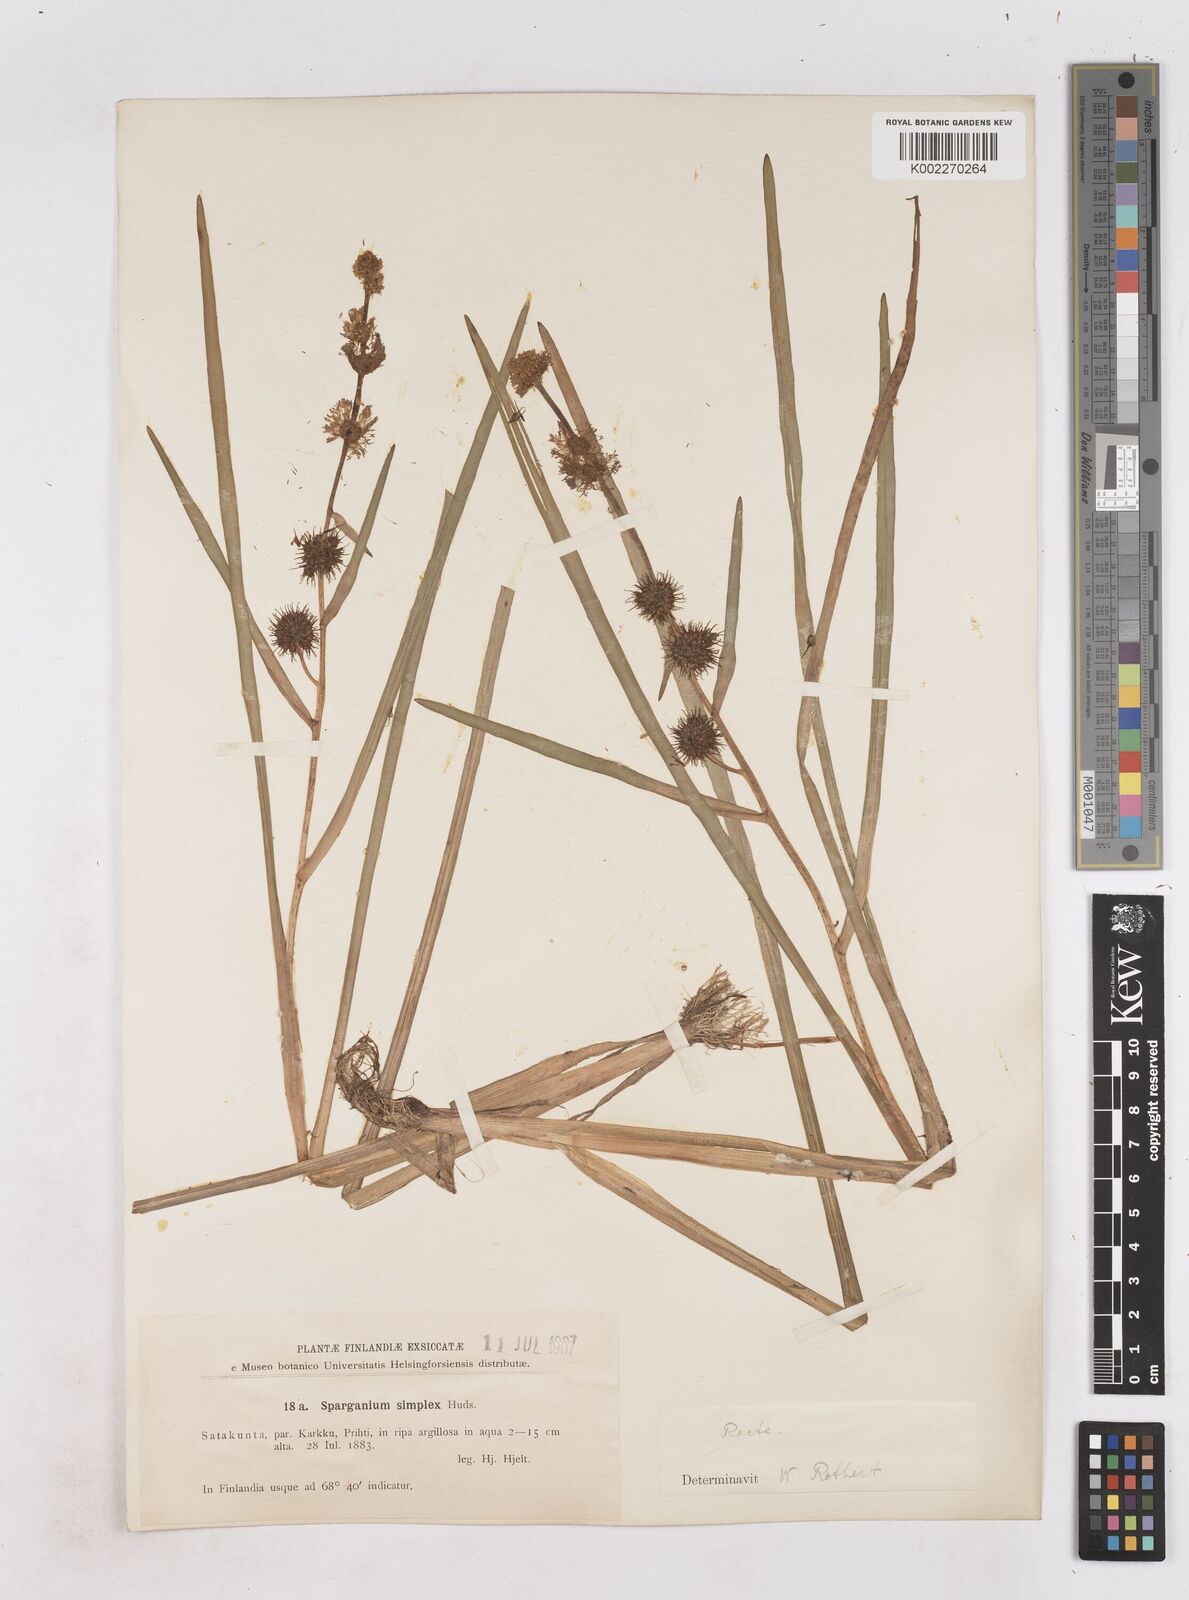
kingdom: Plantae
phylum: Tracheophyta
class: Liliopsida
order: Poales
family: Typhaceae
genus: Sparganium
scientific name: Sparganium emersum
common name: Unbranched bur-reed
